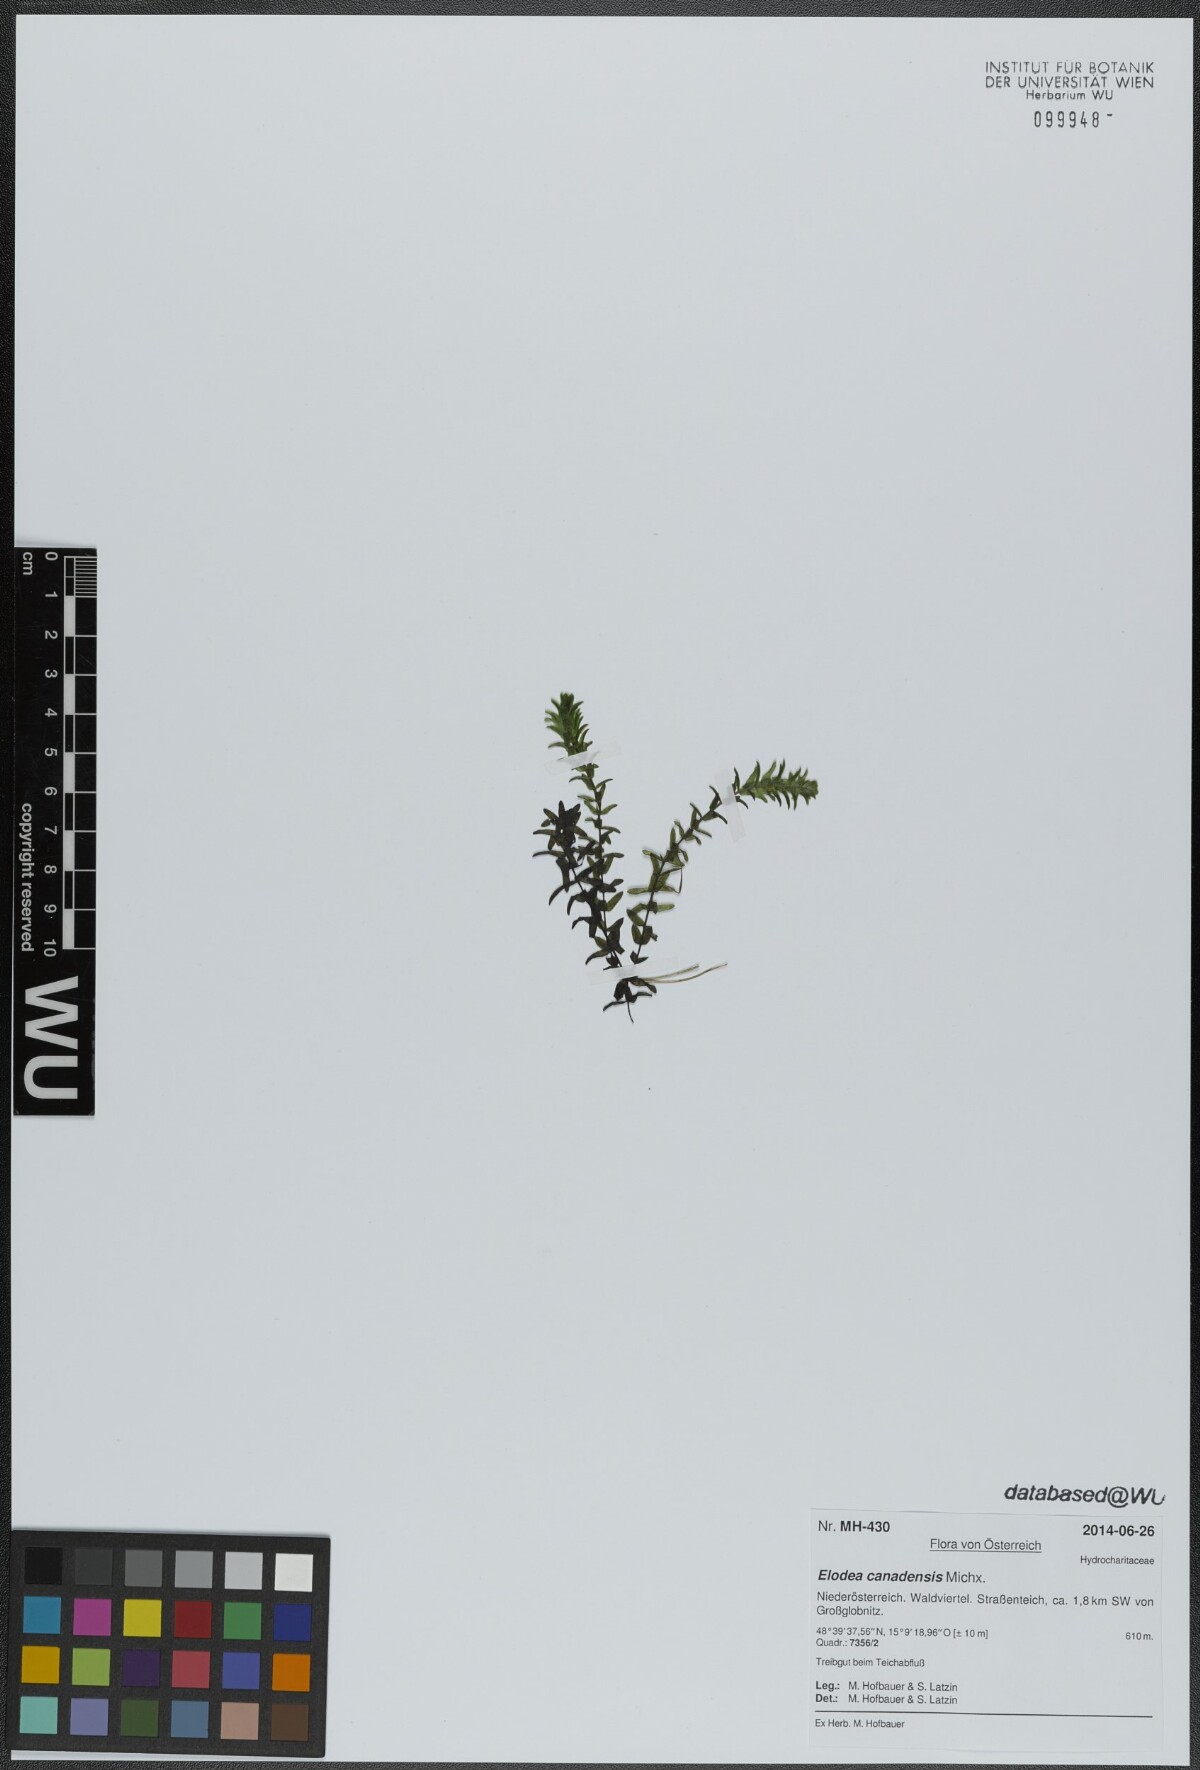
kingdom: Plantae
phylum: Tracheophyta
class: Liliopsida
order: Alismatales
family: Hydrocharitaceae
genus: Elodea
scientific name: Elodea canadensis
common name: Canadian waterweed
